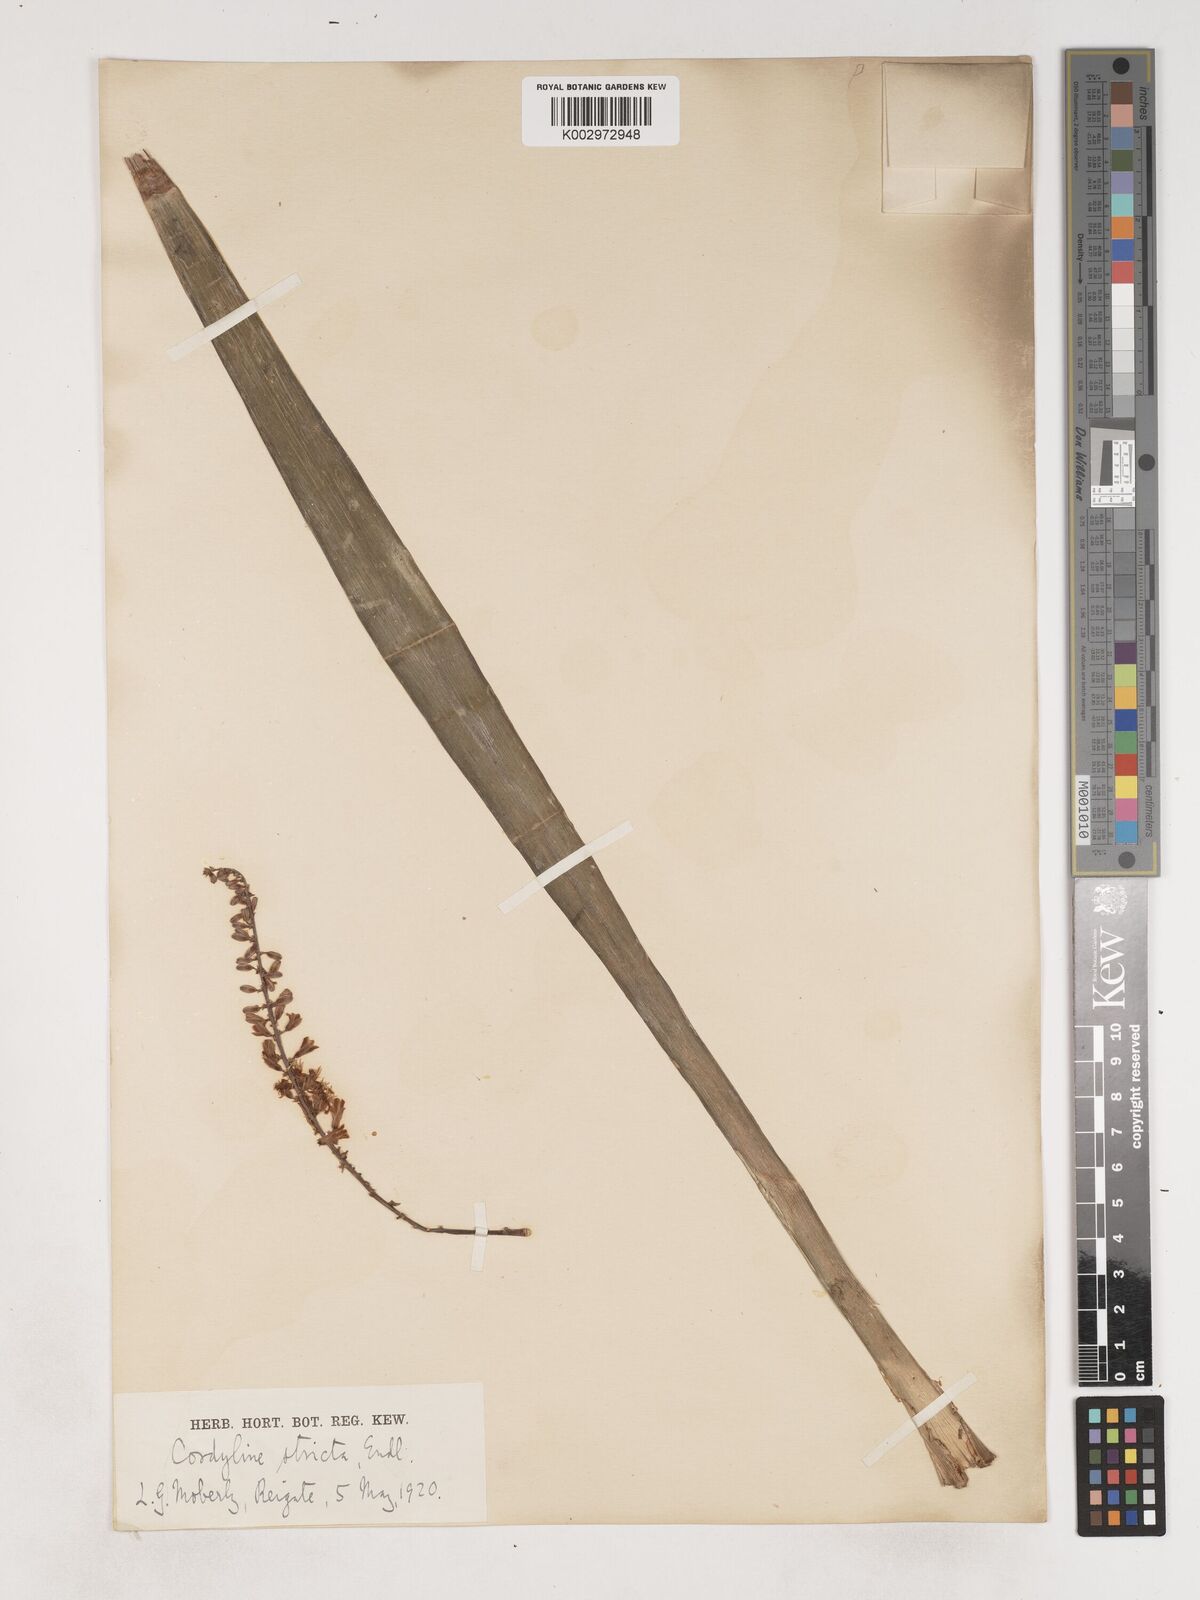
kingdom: Plantae
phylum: Tracheophyta
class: Liliopsida
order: Asparagales
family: Asparagaceae
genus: Cordyline
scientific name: Cordyline australis
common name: Cabbage-palm
